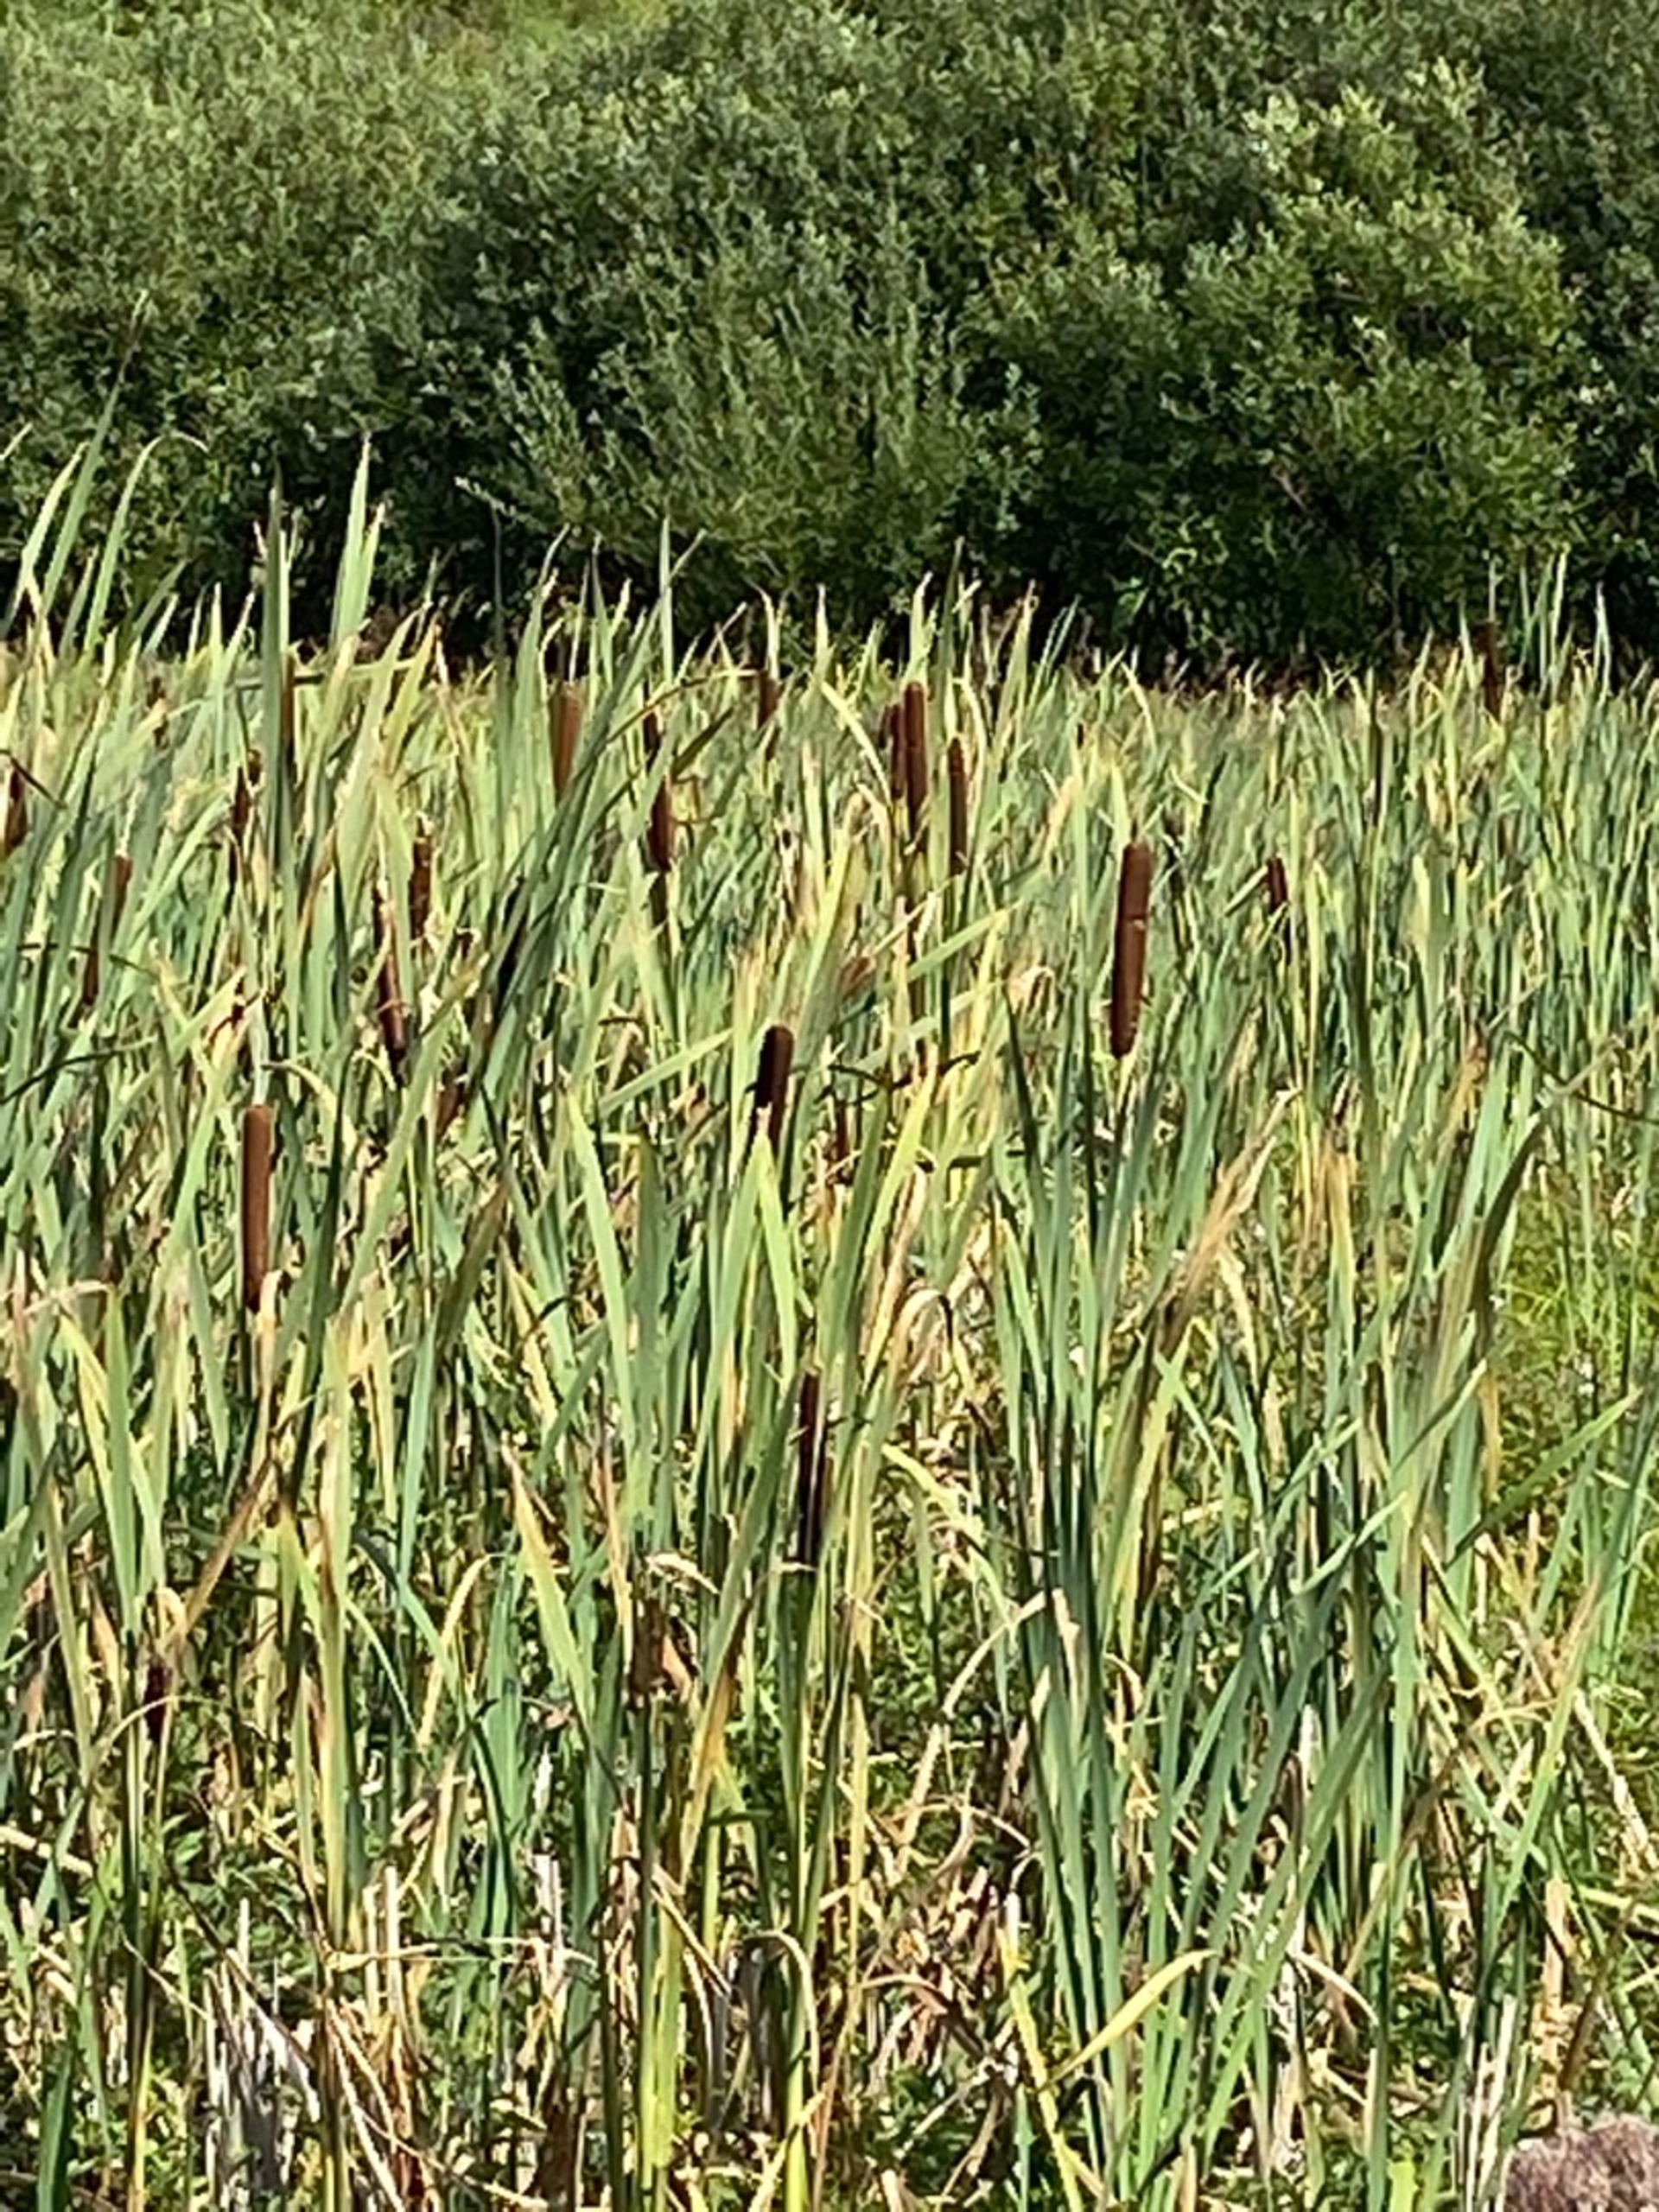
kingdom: Plantae
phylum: Tracheophyta
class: Liliopsida
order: Poales
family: Typhaceae
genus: Typha
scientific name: Typha latifolia
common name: Bredbladet dunhammer
